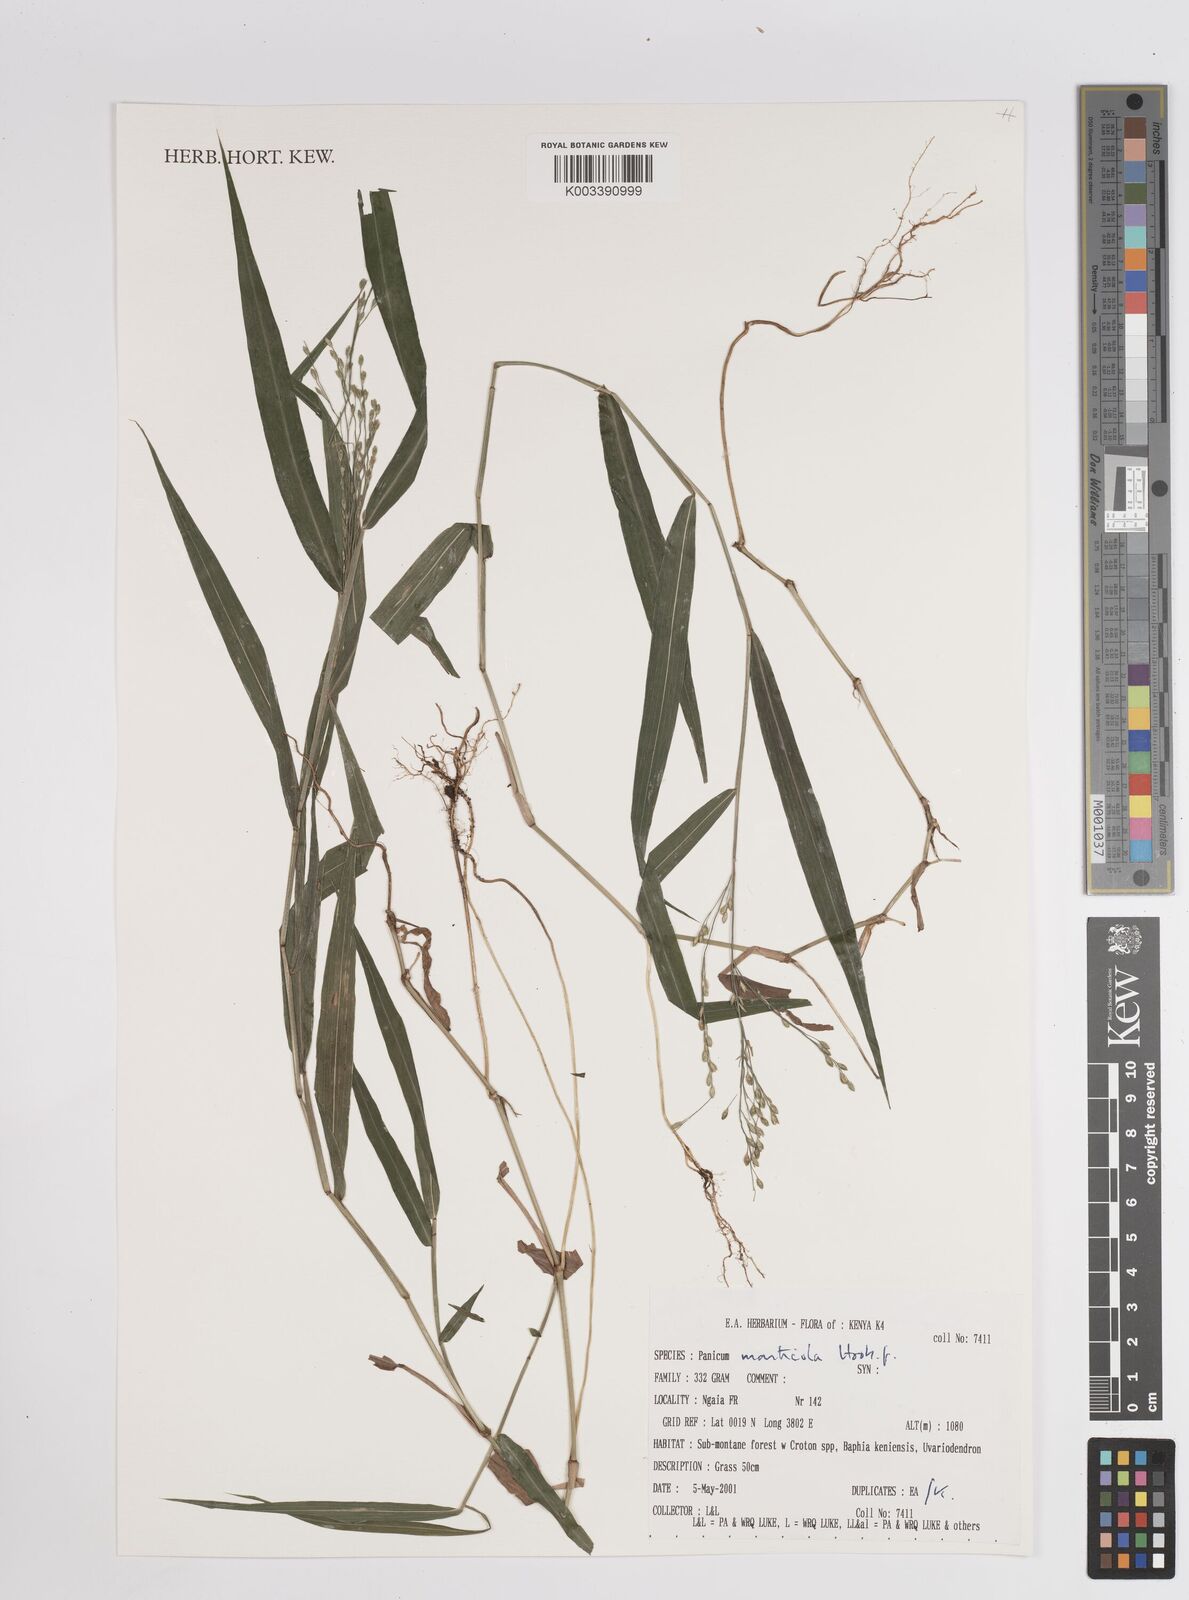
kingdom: Plantae
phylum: Tracheophyta
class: Liliopsida
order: Poales
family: Poaceae
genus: Panicum
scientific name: Panicum monticola
